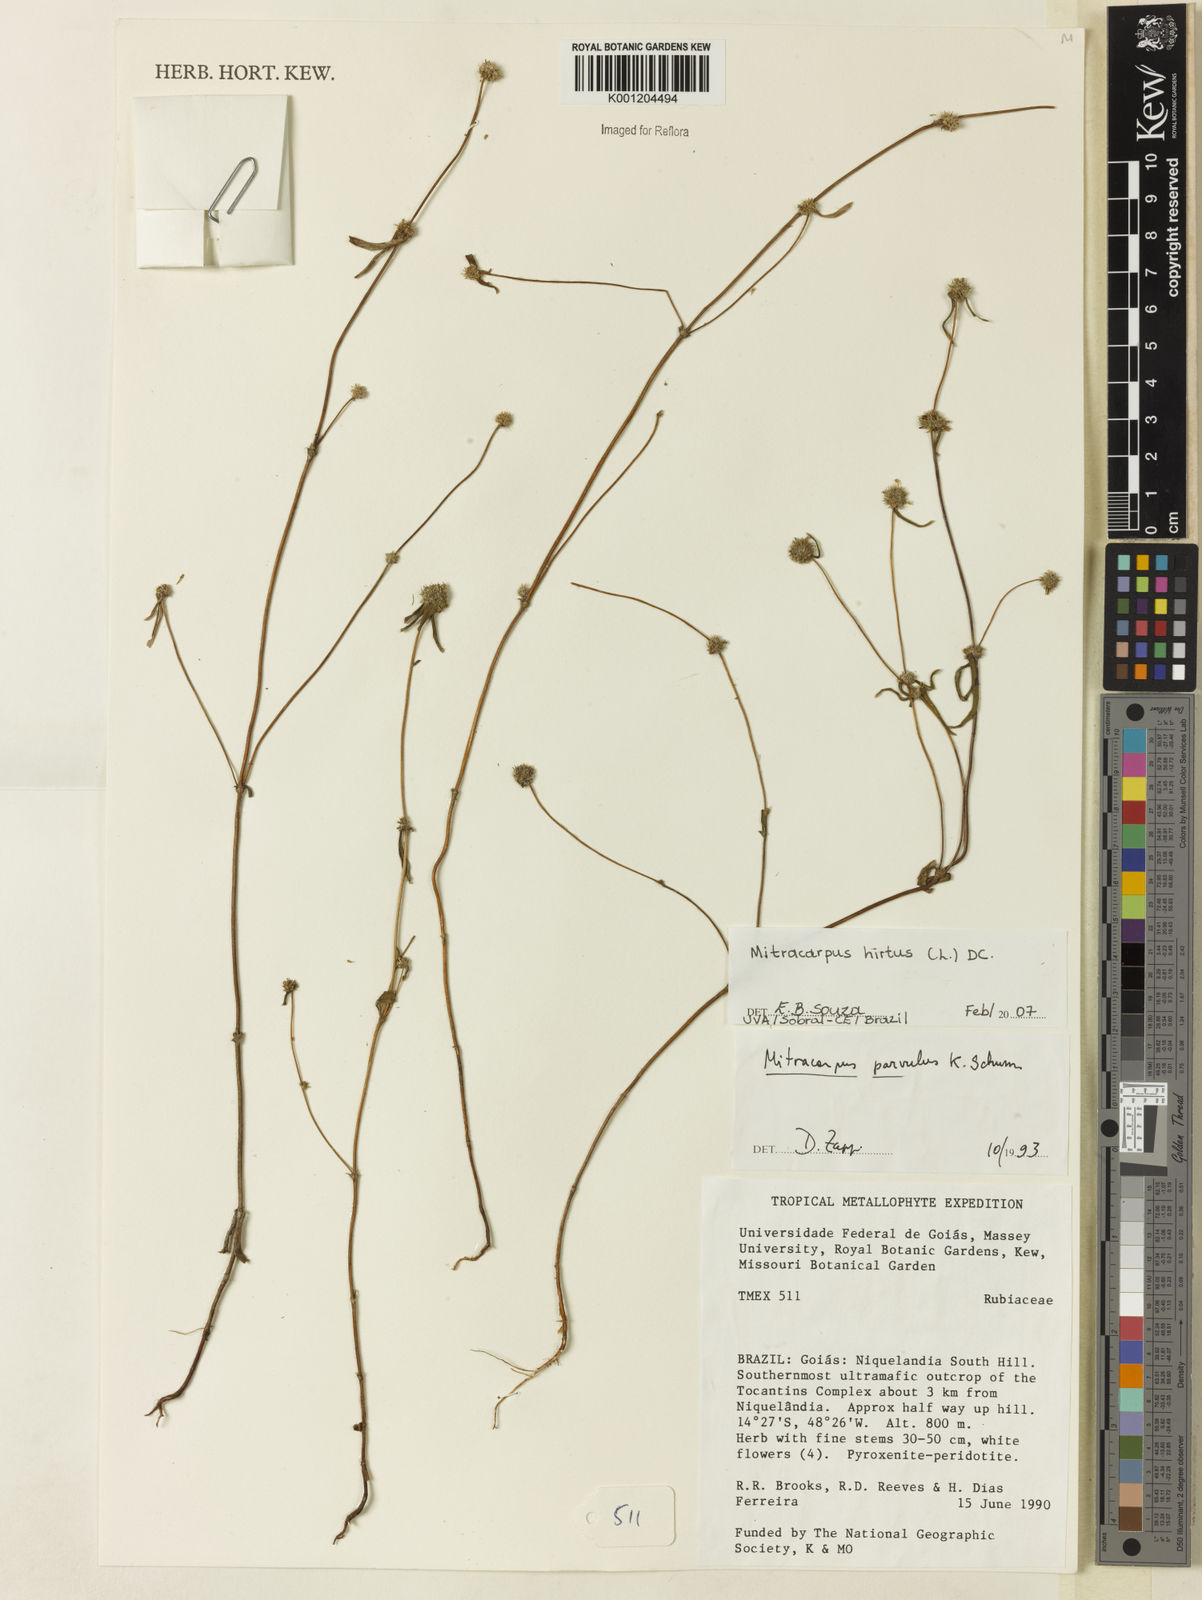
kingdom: Plantae
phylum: Tracheophyta
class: Magnoliopsida
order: Gentianales
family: Rubiaceae
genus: Mitracarpus
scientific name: Mitracarpus hirtus
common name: Tropical girdlepod
